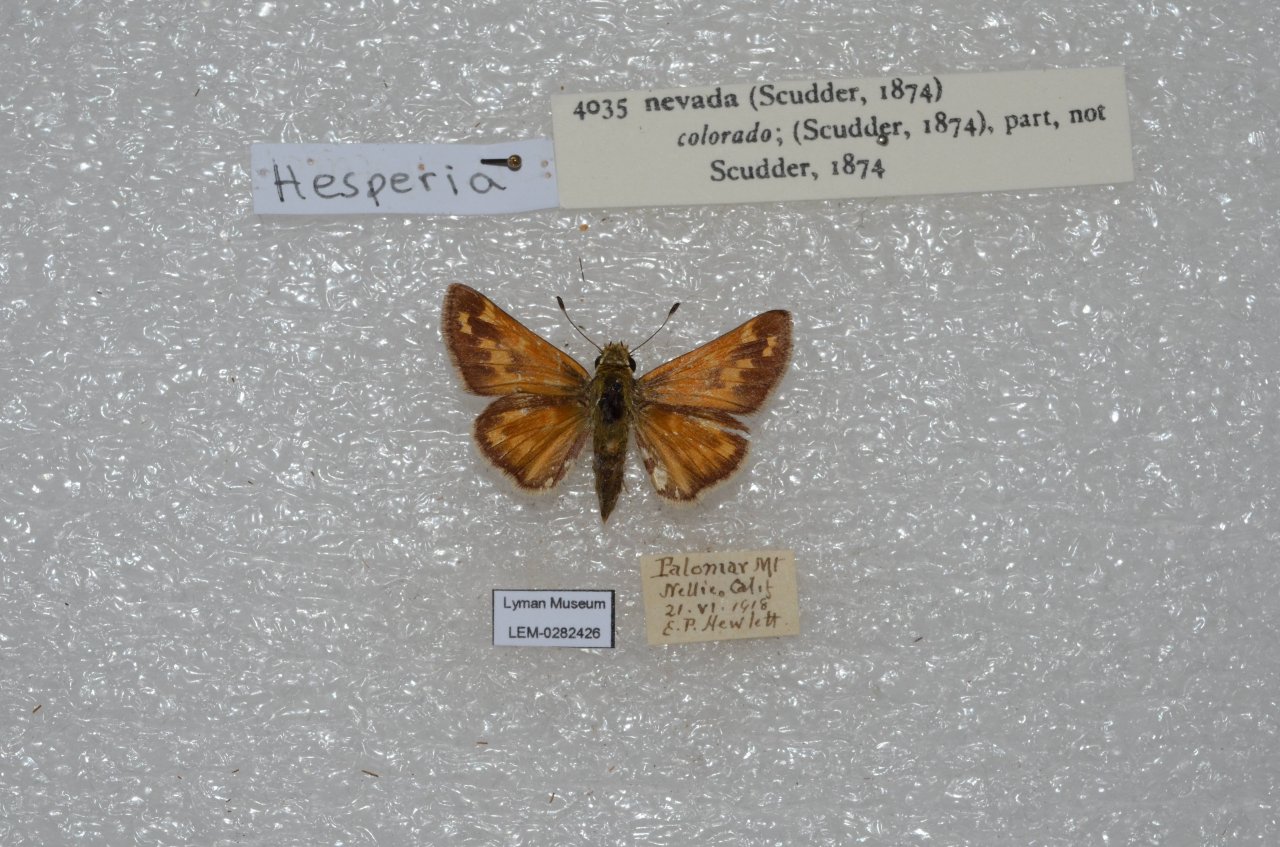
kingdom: Animalia
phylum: Arthropoda
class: Insecta
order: Lepidoptera
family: Hesperiidae
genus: Hesperia
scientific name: Hesperia nevada
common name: Nevada Skipper
